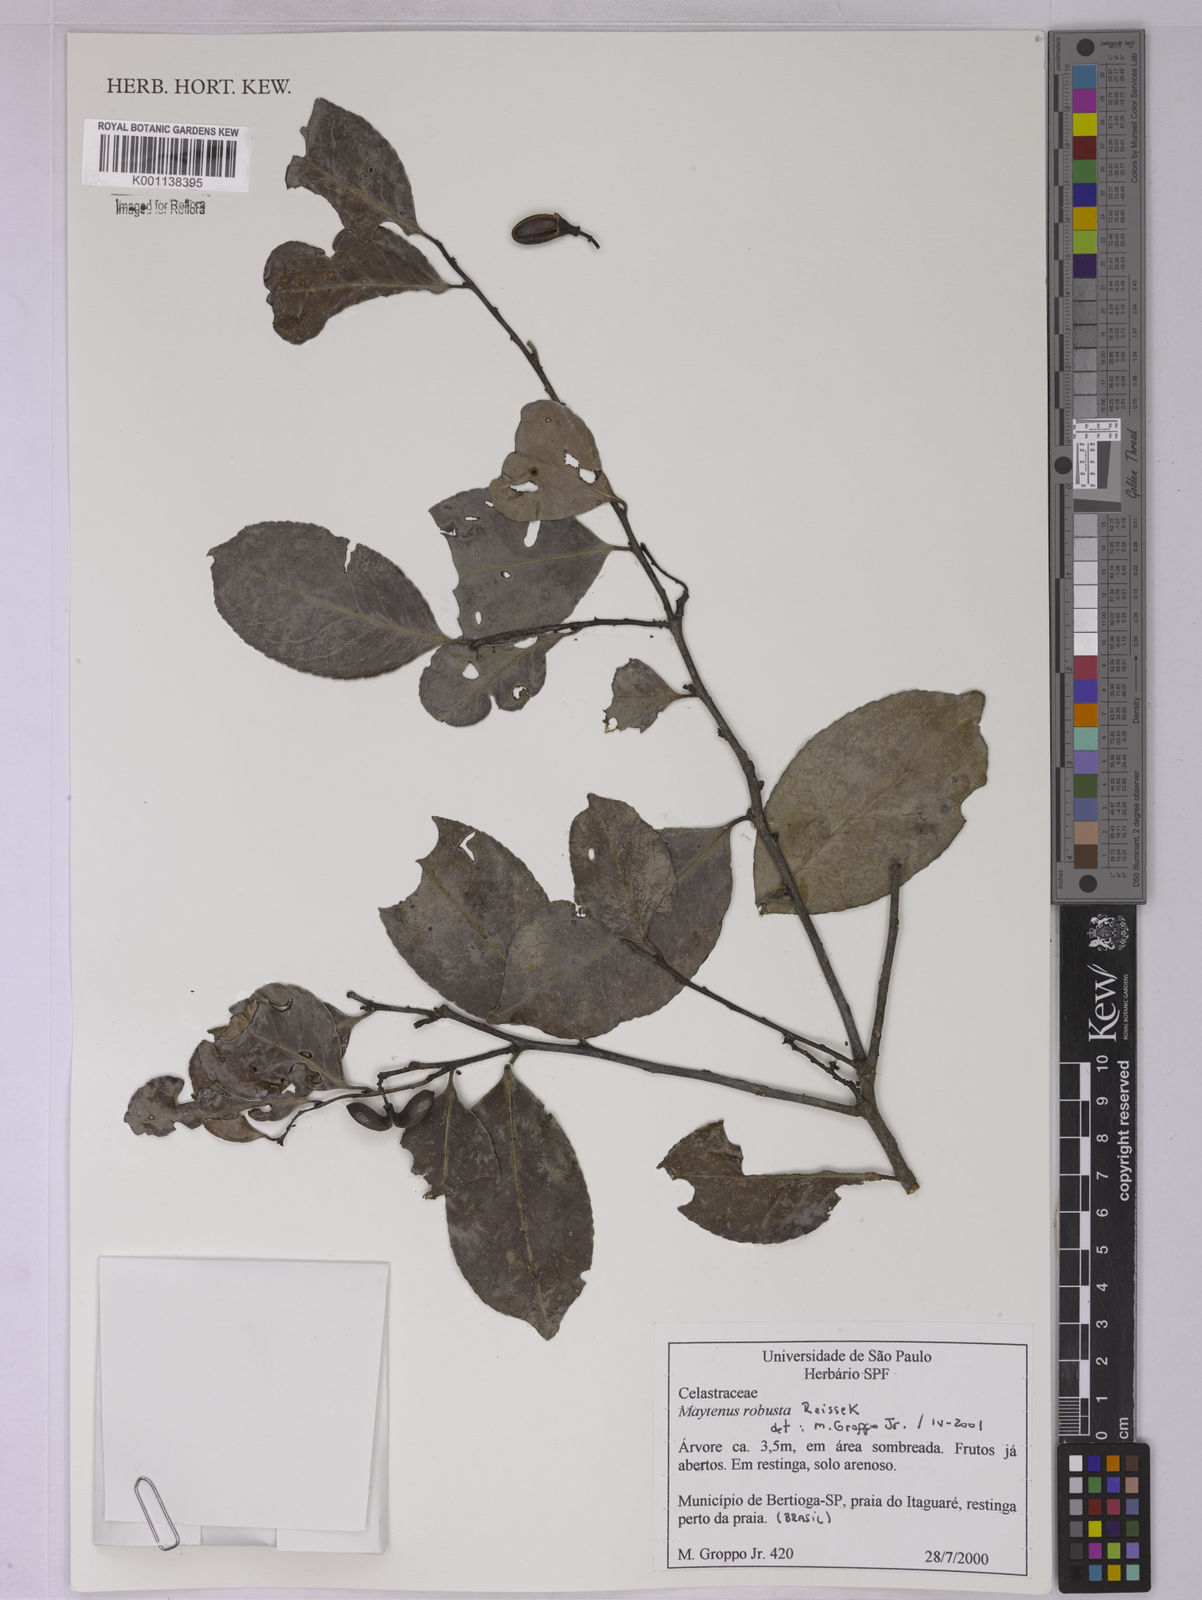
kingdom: Plantae
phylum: Tracheophyta
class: Magnoliopsida
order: Celastrales
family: Celastraceae
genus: Monteverdia
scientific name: Monteverdia robusta
